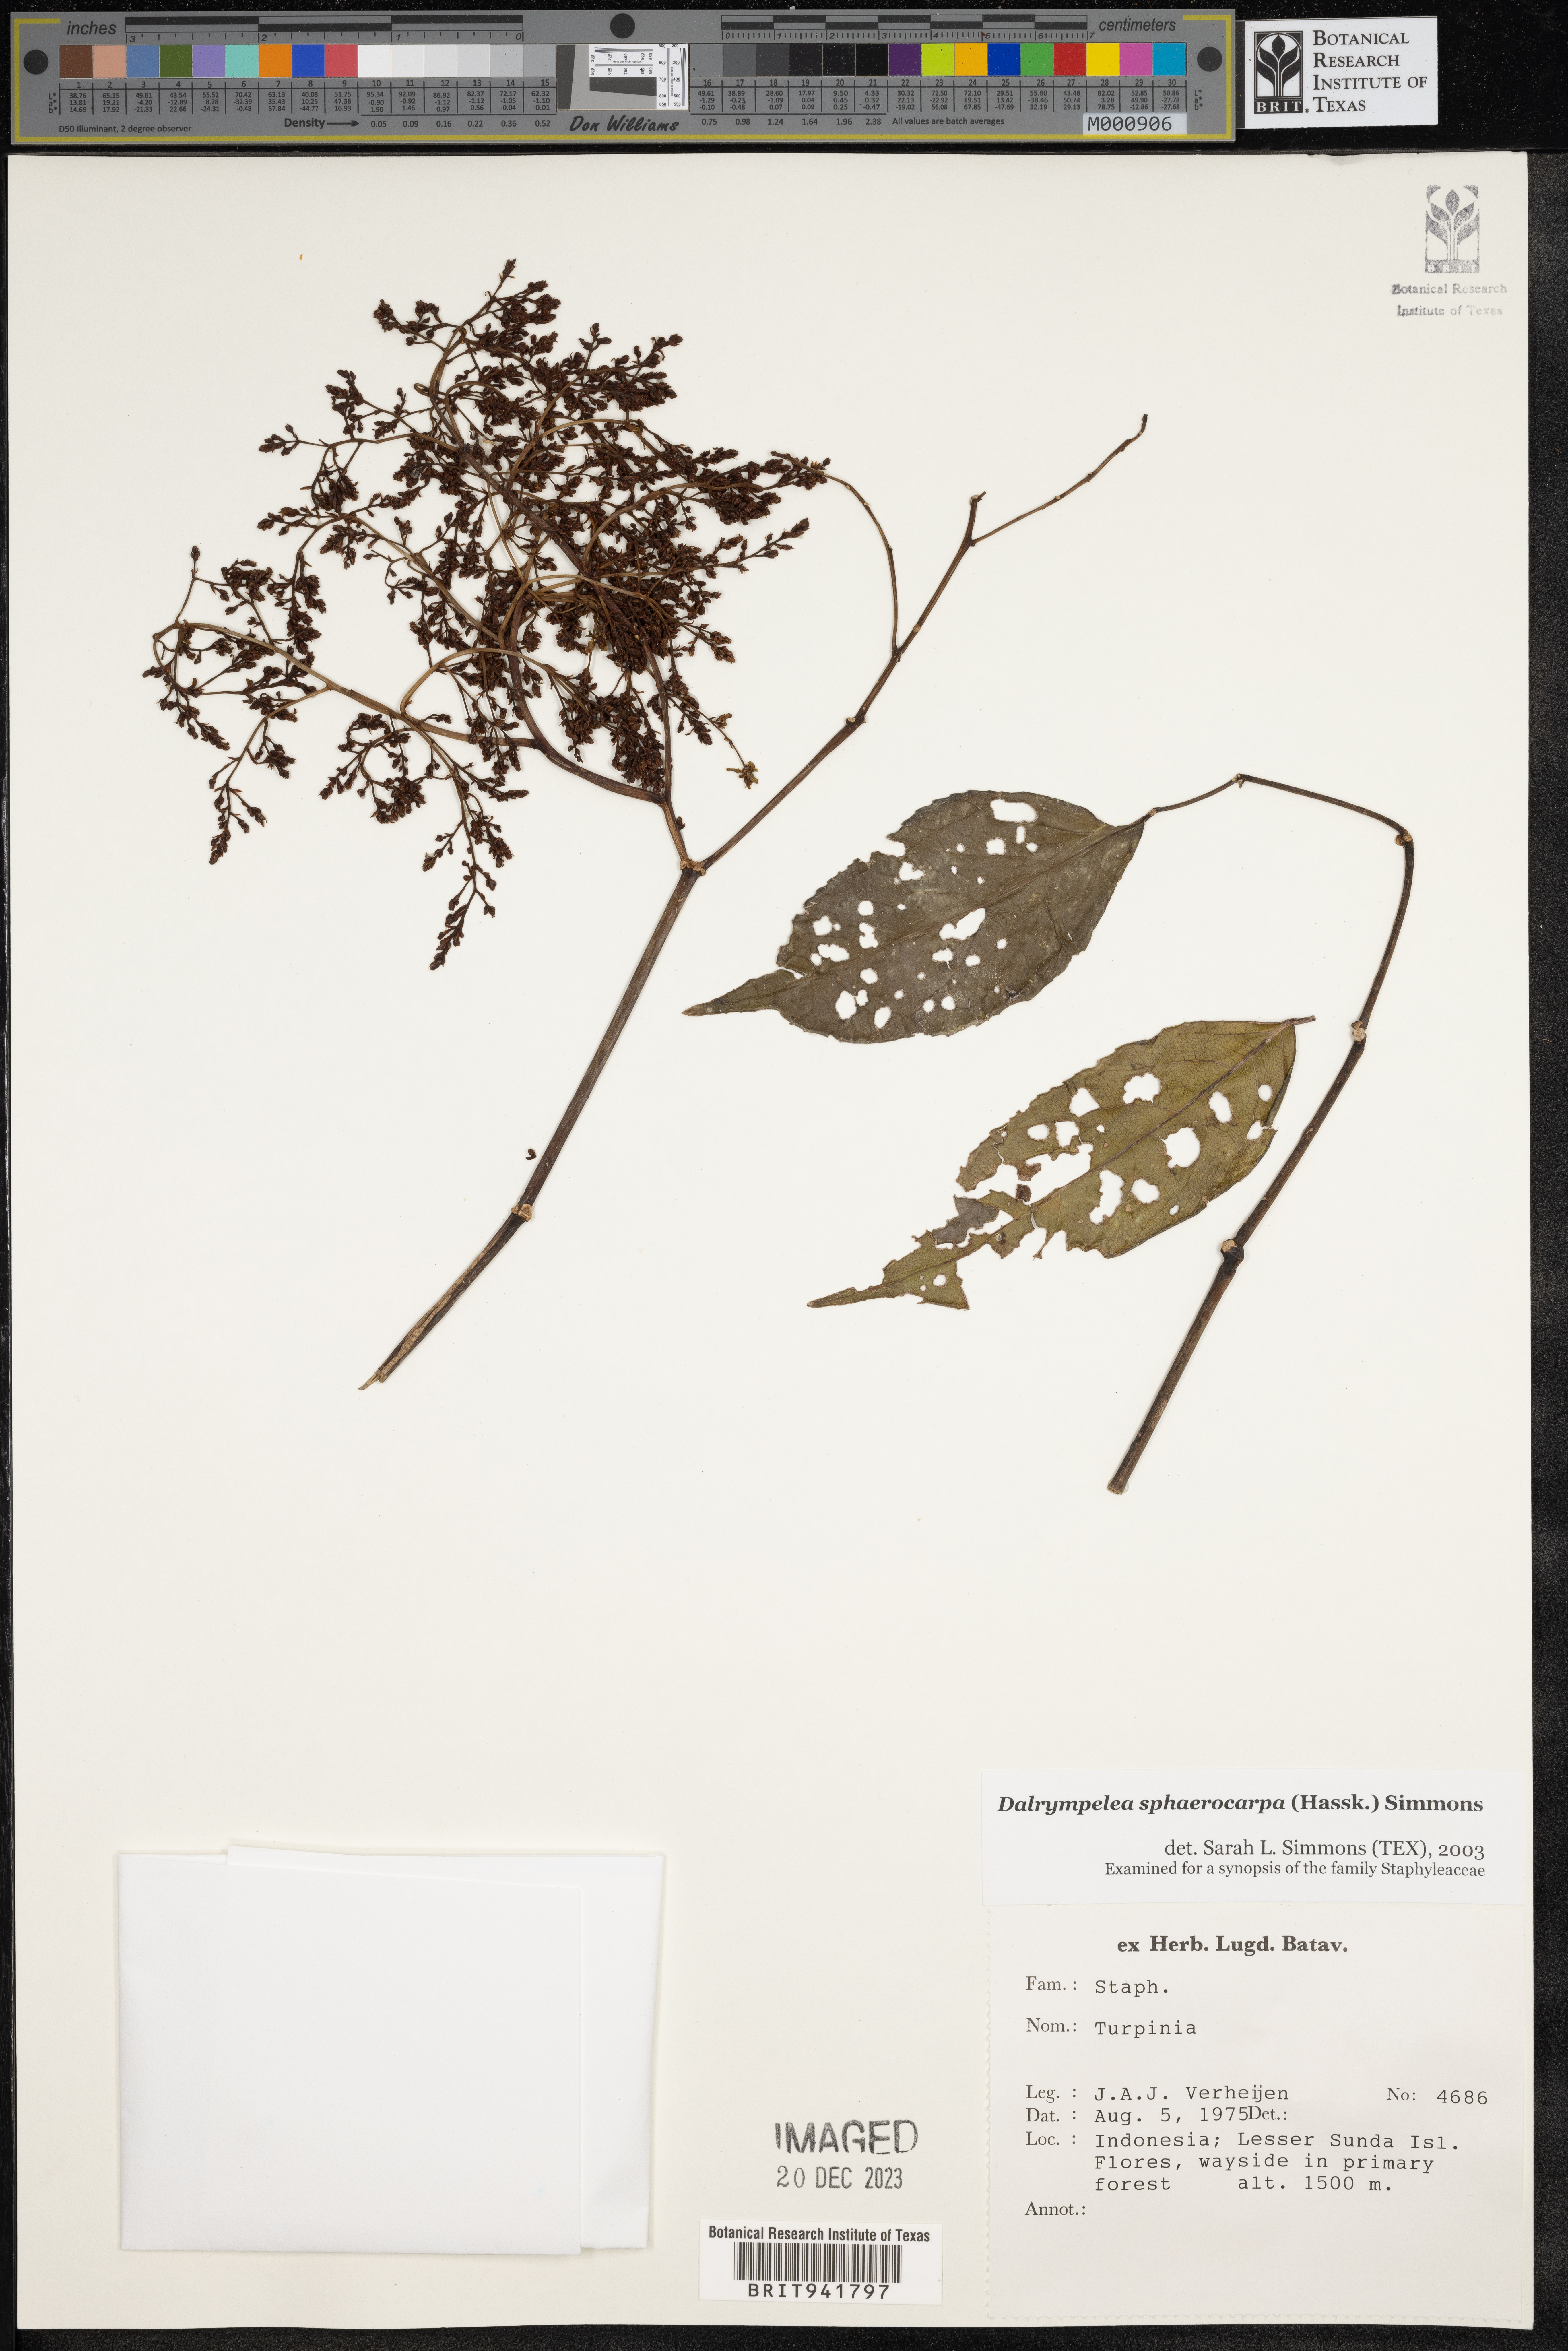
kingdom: Plantae
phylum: Tracheophyta
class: Magnoliopsida
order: Crossosomatales
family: Staphyleaceae
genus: Dalrympelea
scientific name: Dalrympelea sphaerocarpa
